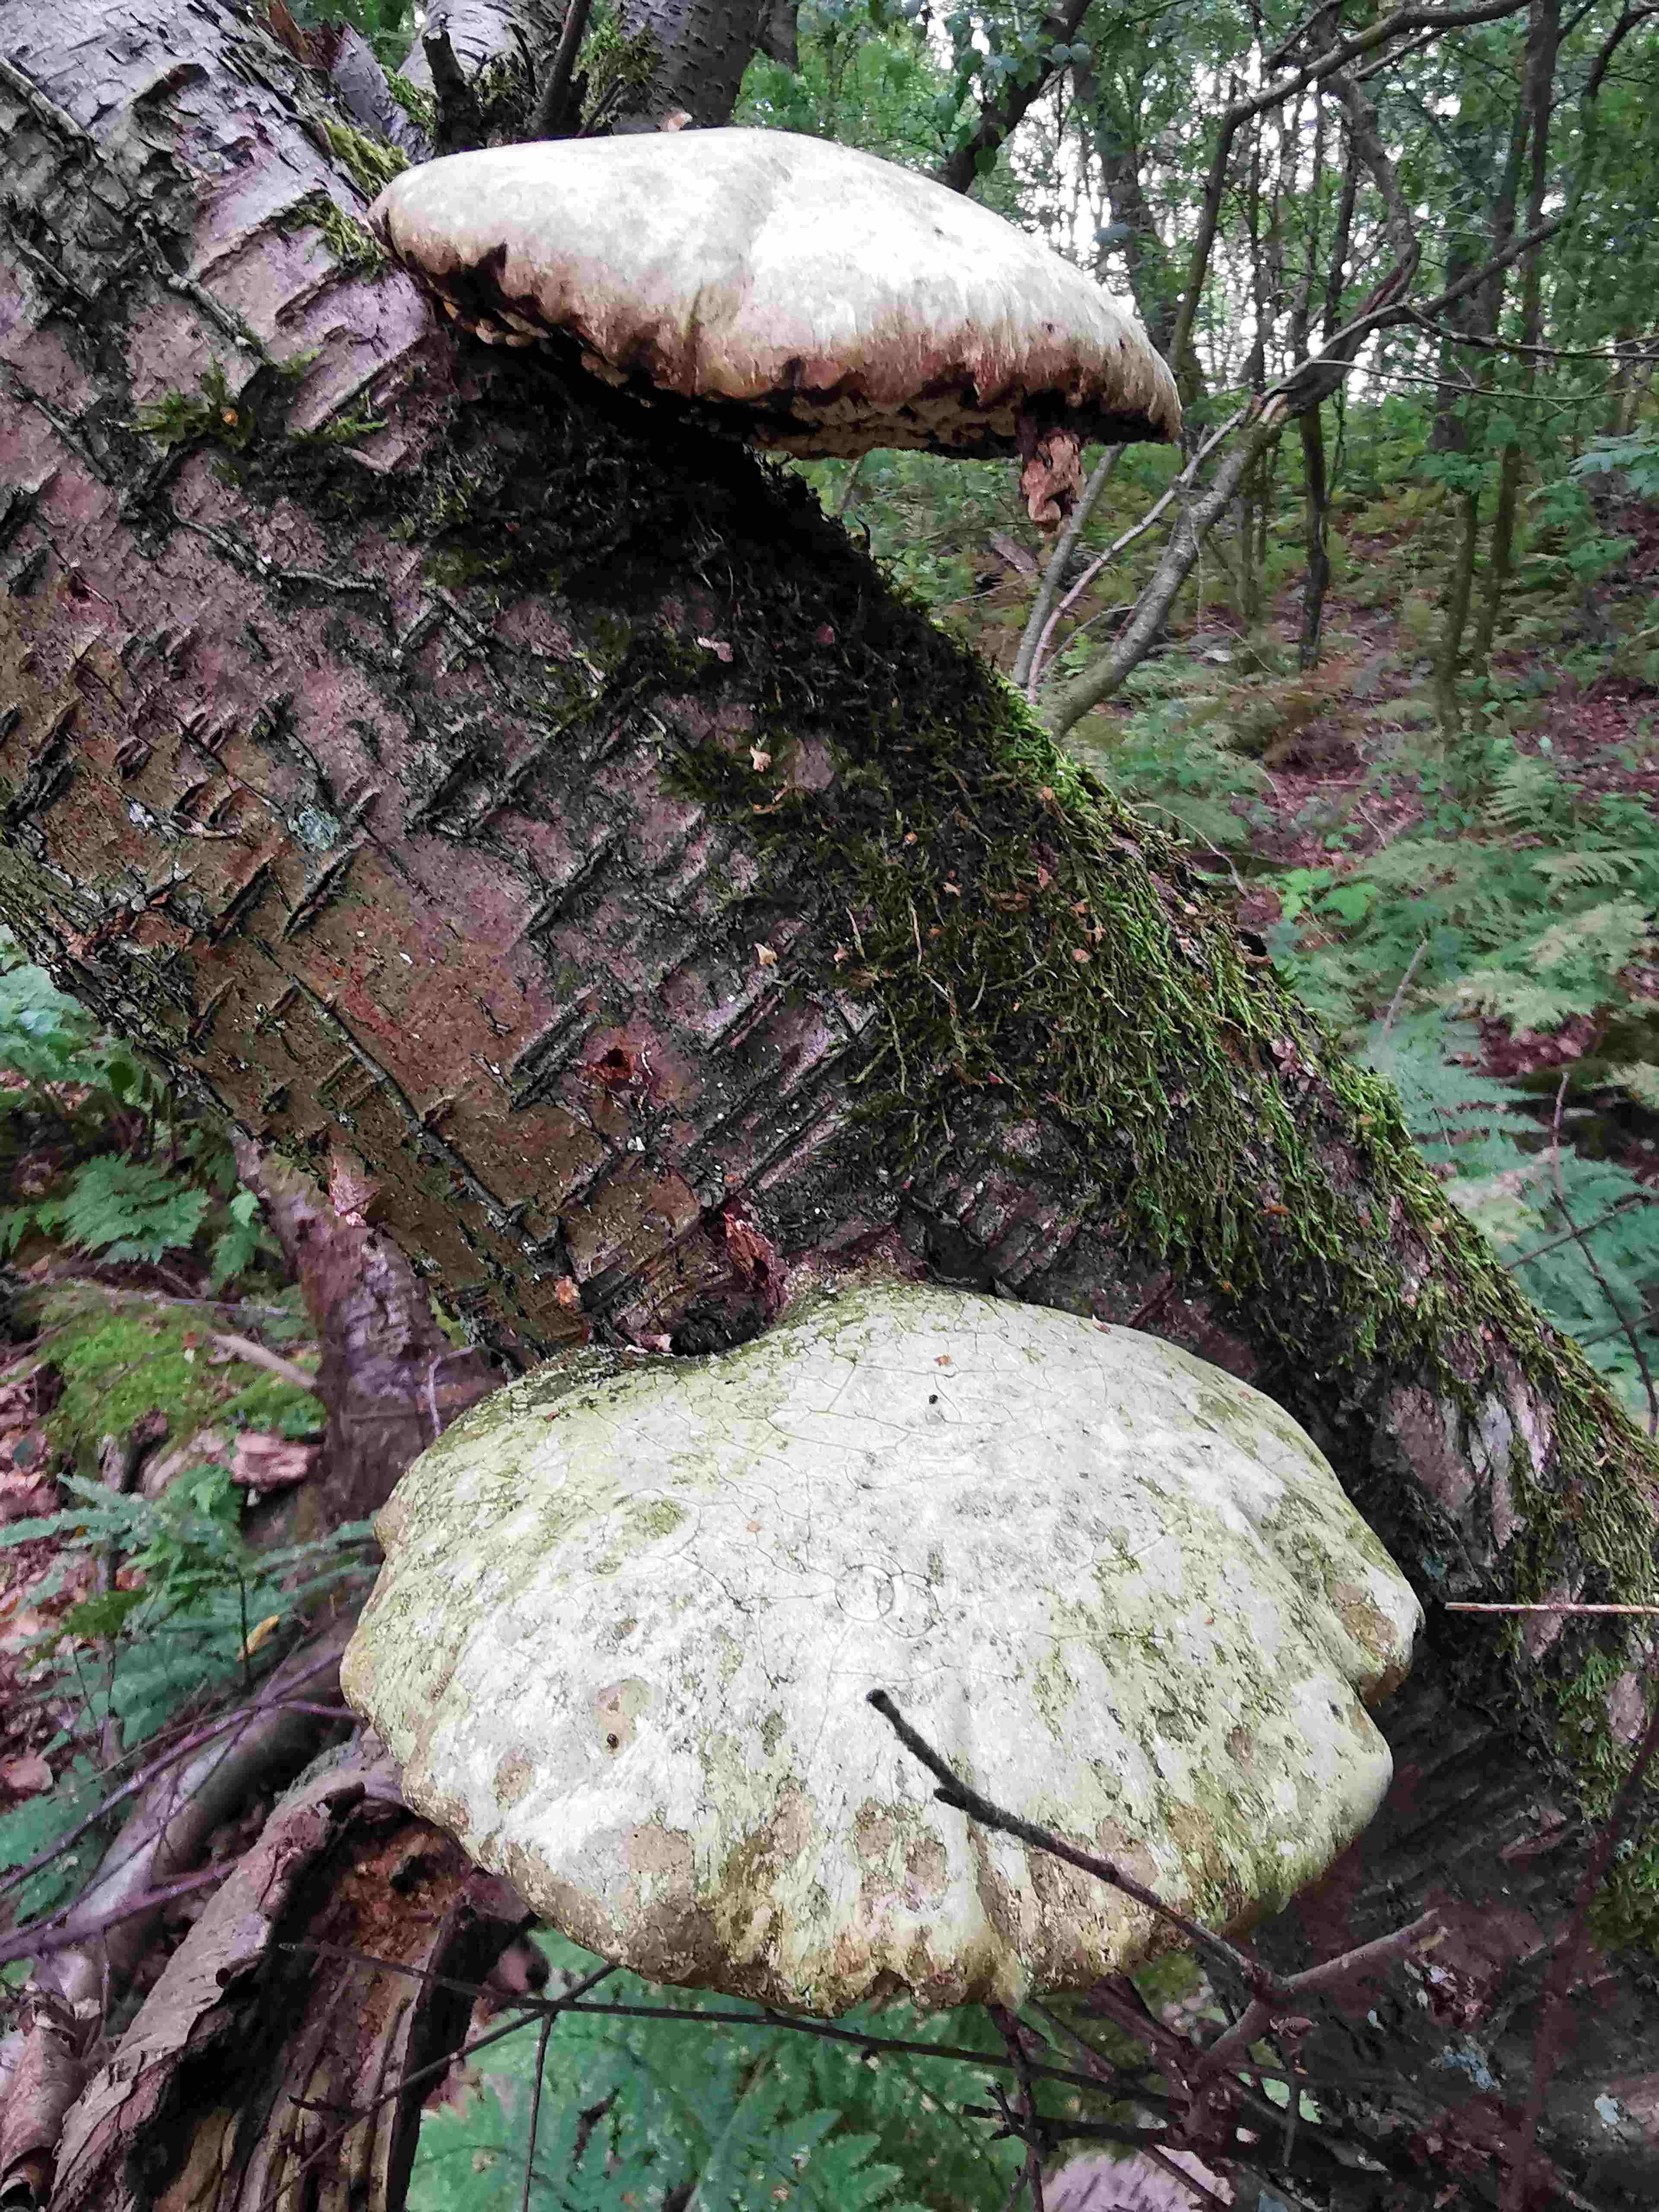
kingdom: Fungi
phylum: Basidiomycota
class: Agaricomycetes
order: Polyporales
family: Fomitopsidaceae
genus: Fomitopsis
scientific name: Fomitopsis betulina
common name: birkeporesvamp
